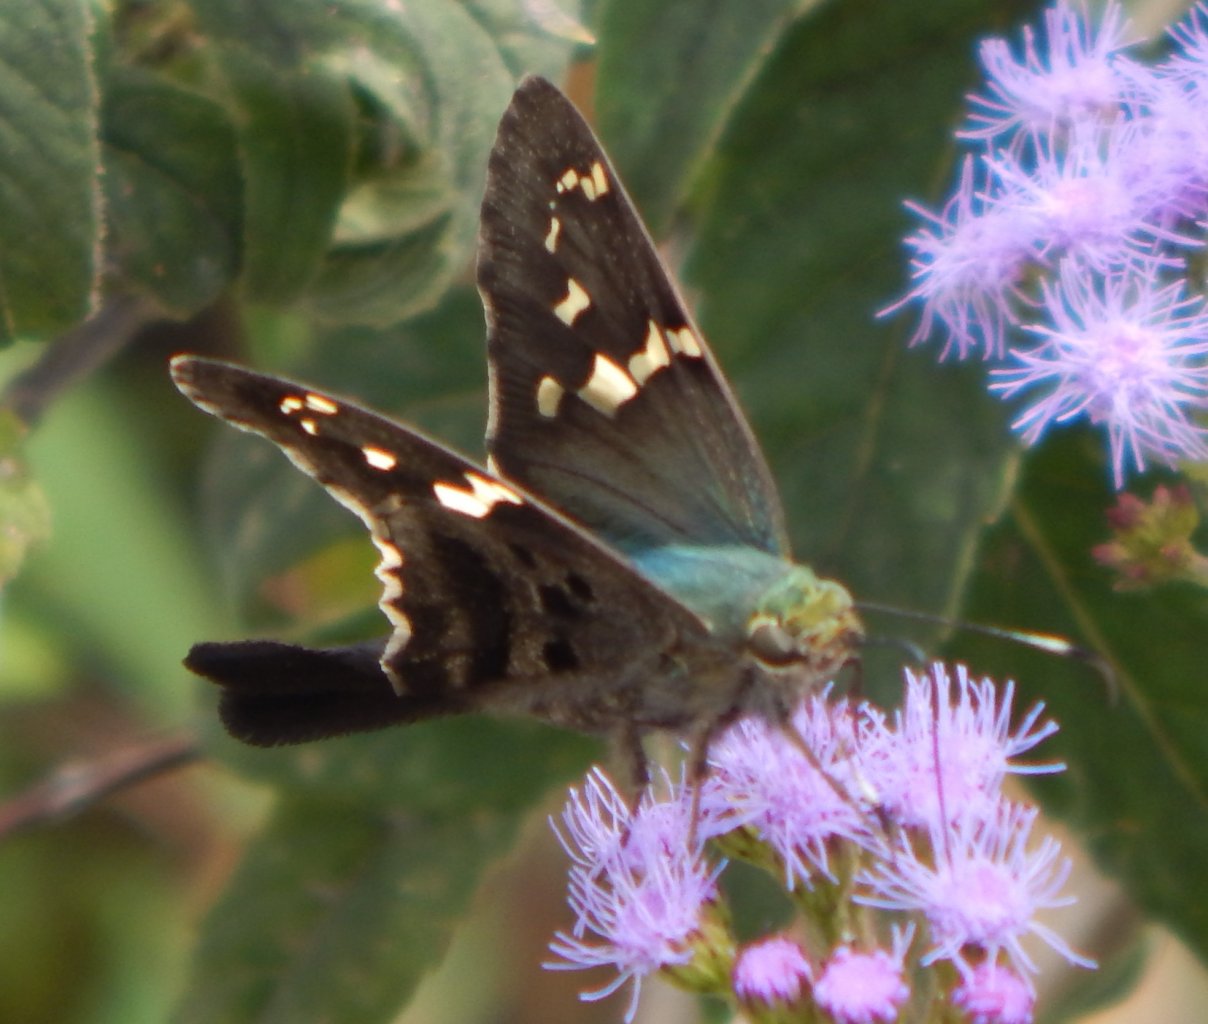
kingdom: Animalia
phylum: Arthropoda
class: Insecta
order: Lepidoptera
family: Hesperiidae
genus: Urbanus
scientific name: Urbanus proteus
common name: Long-tailed Skipper
